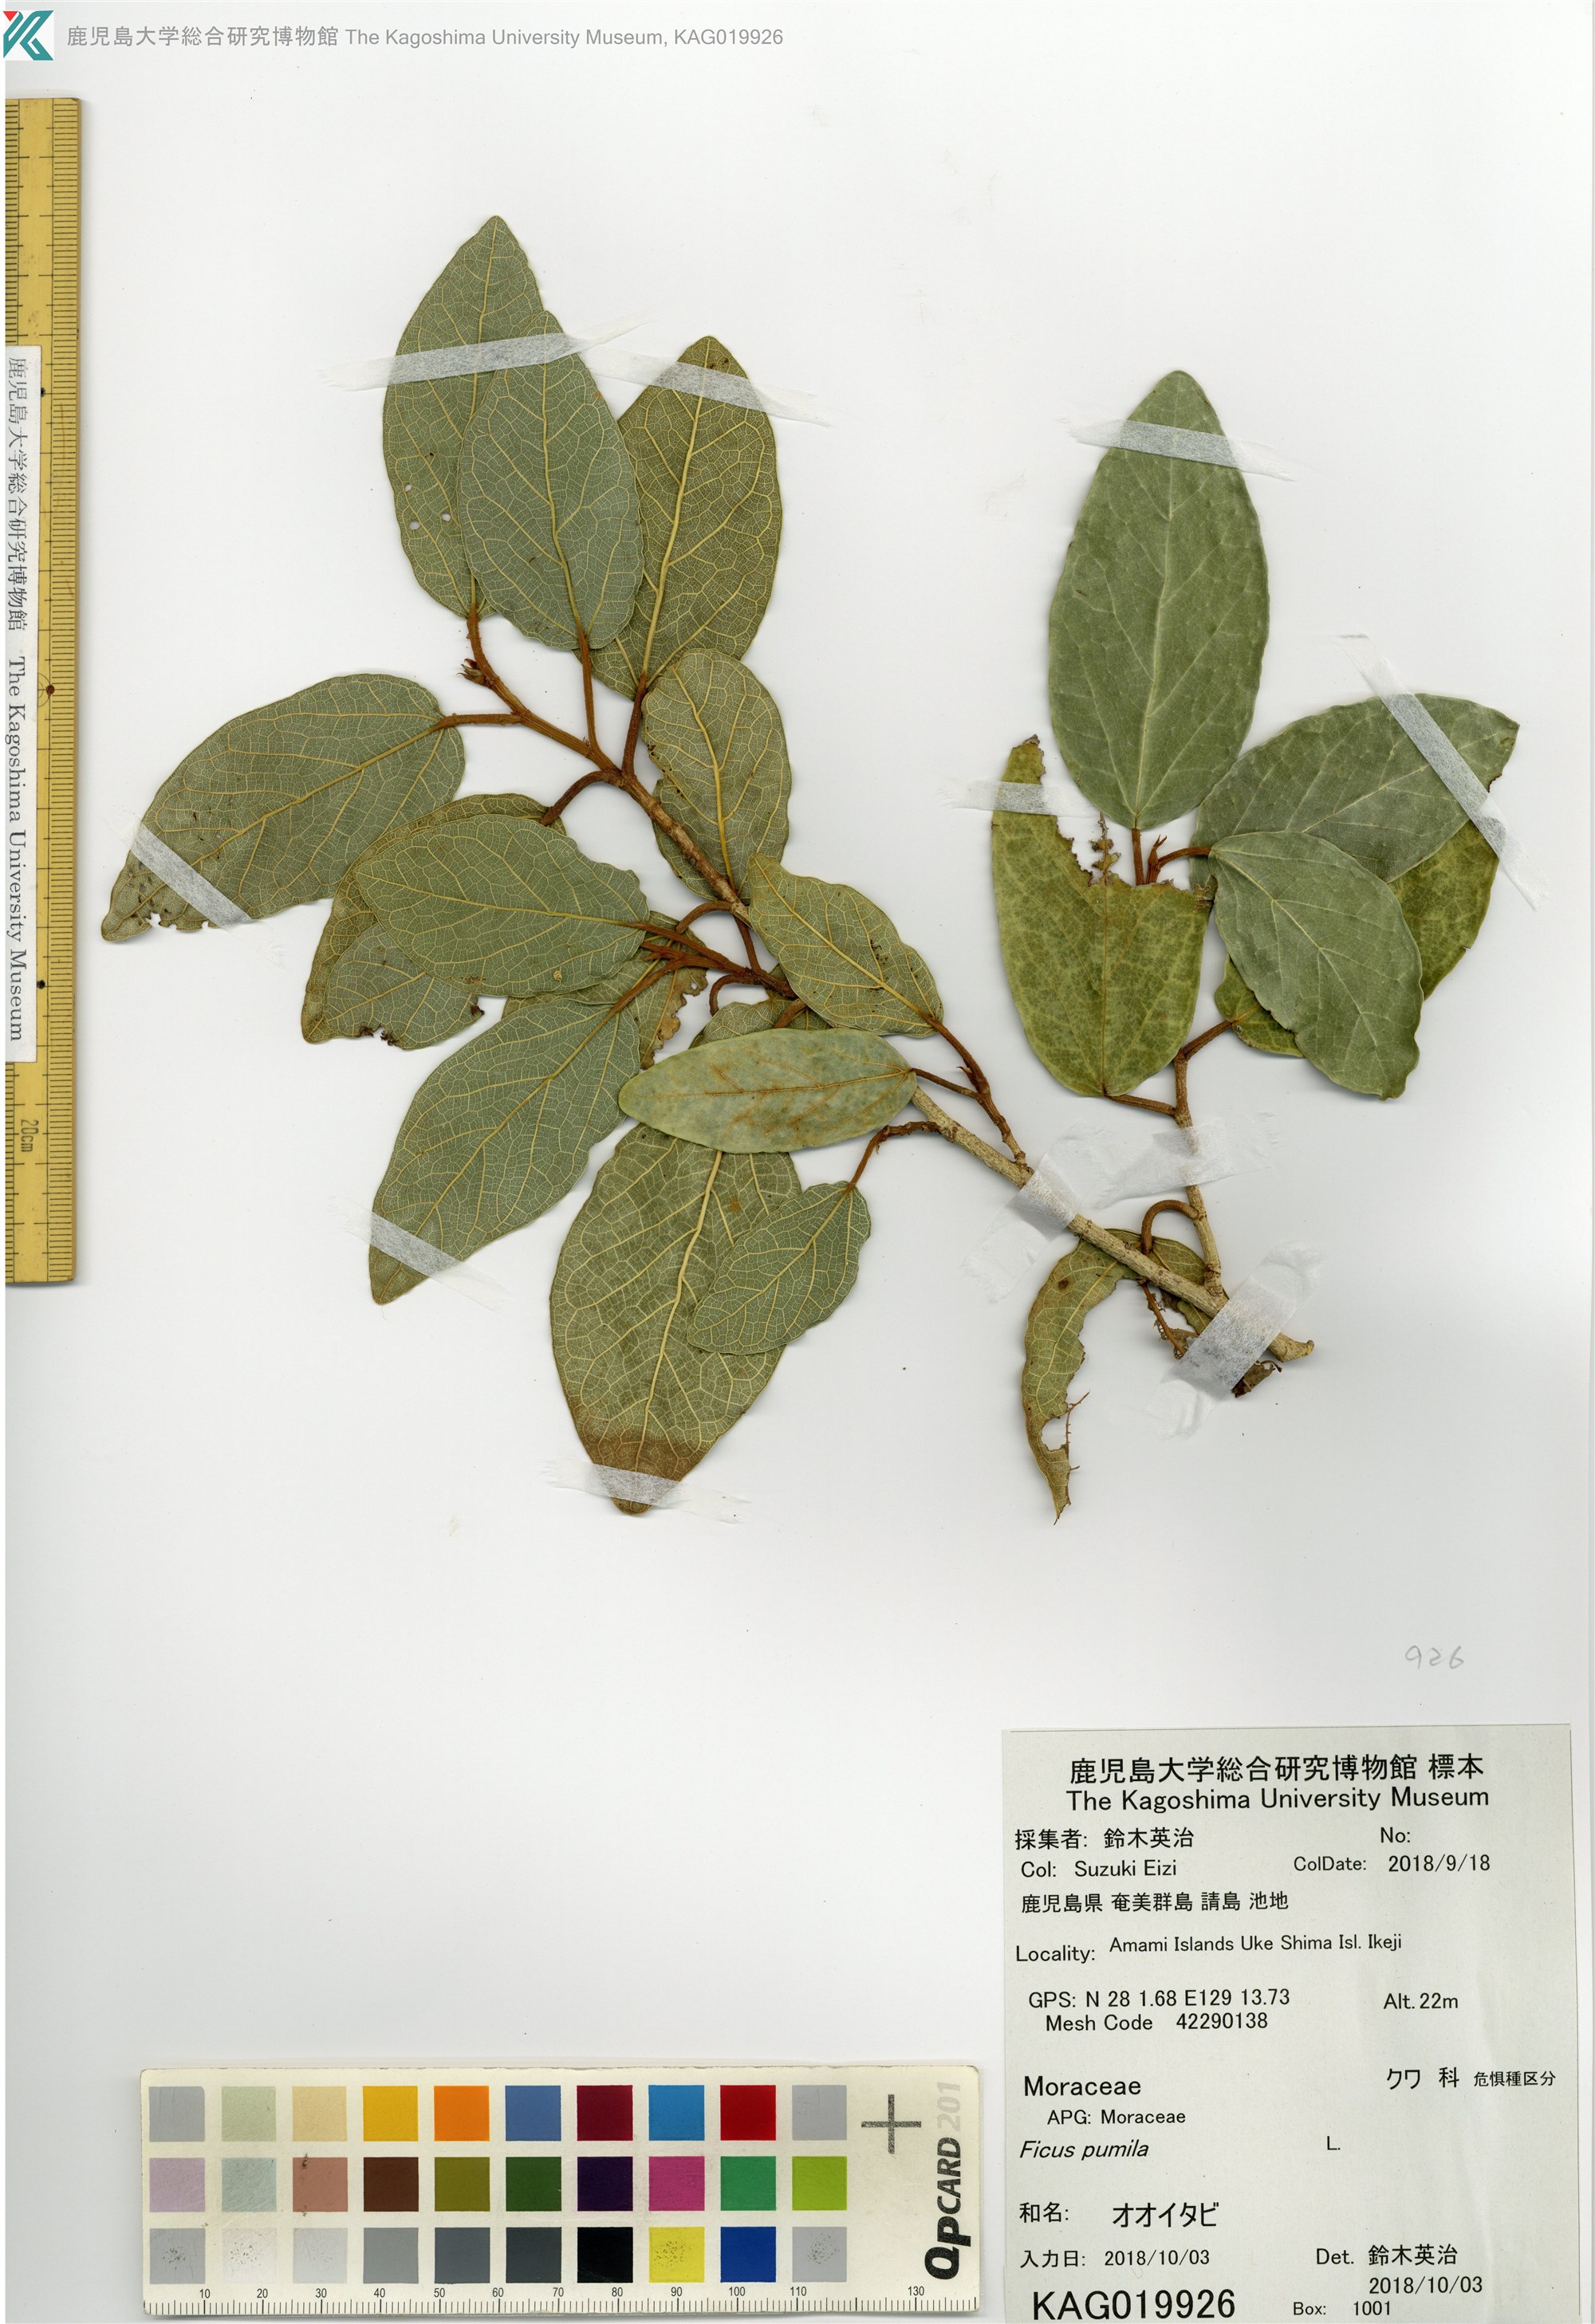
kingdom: Plantae
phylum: Tracheophyta
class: Magnoliopsida
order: Rosales
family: Moraceae
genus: Ficus
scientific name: Ficus pumila
